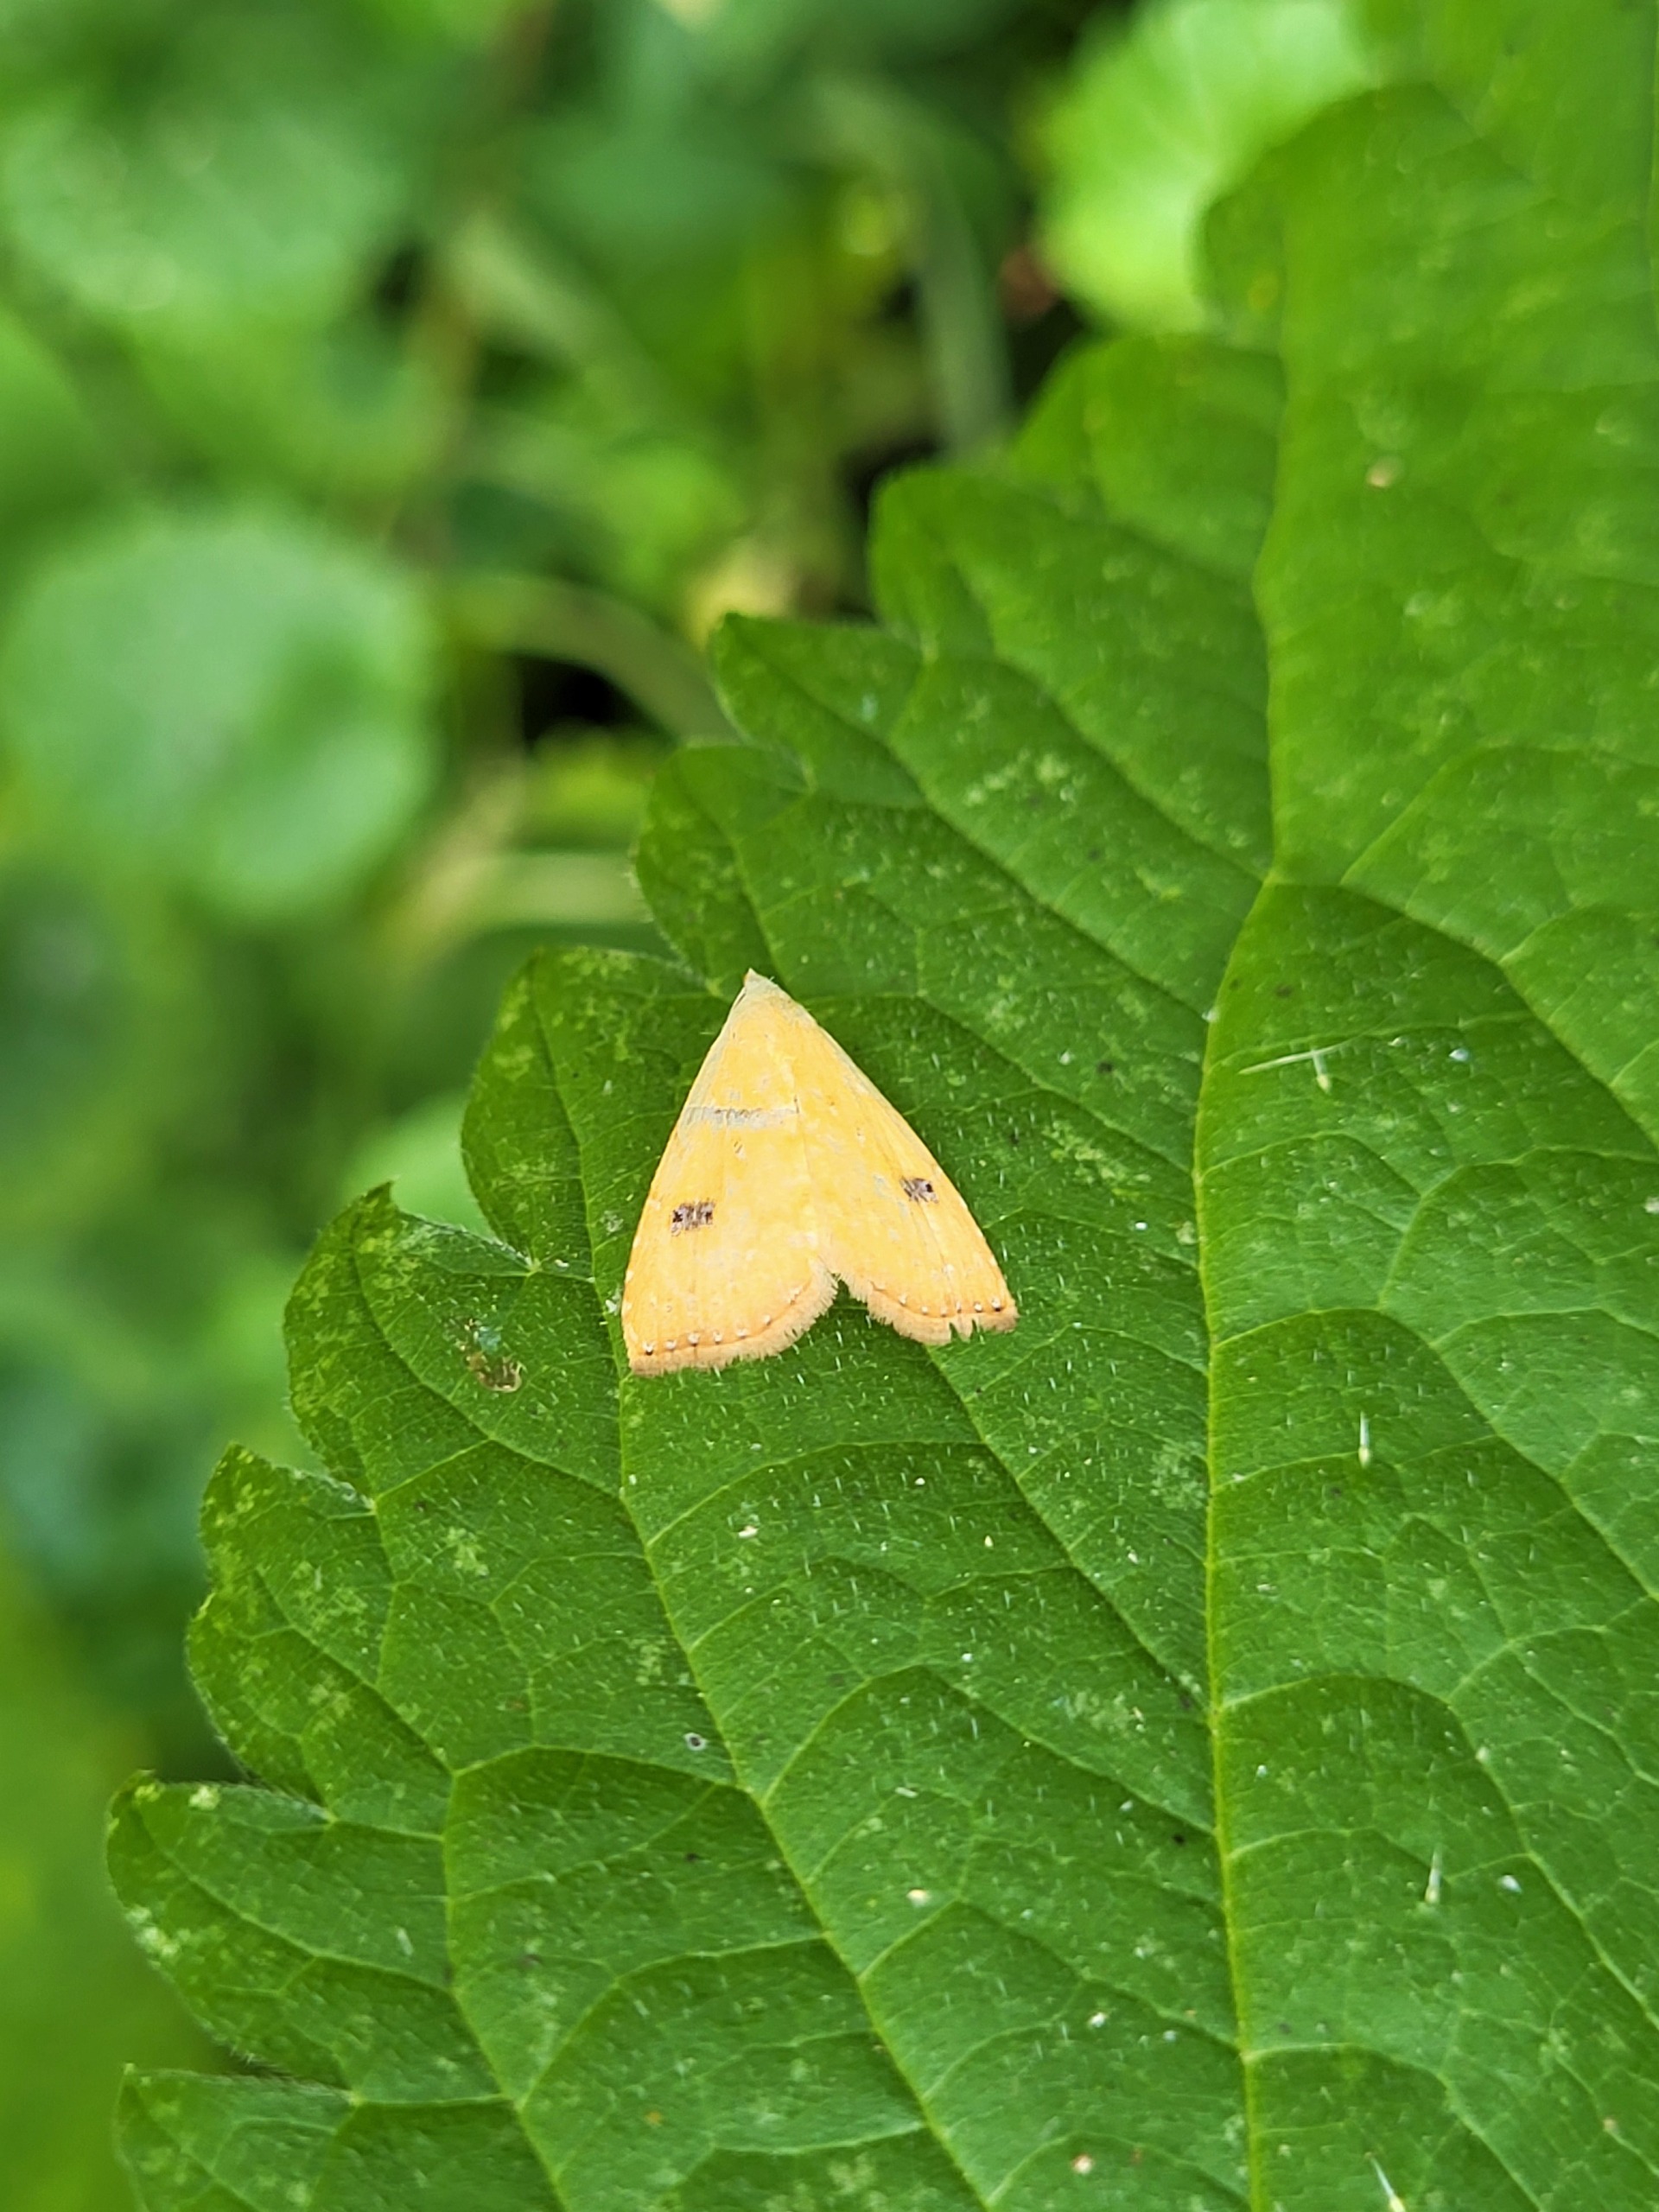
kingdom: Animalia
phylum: Arthropoda
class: Insecta
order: Lepidoptera
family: Erebidae
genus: Rivula
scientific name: Rivula sericealis
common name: Lille å-ugle
